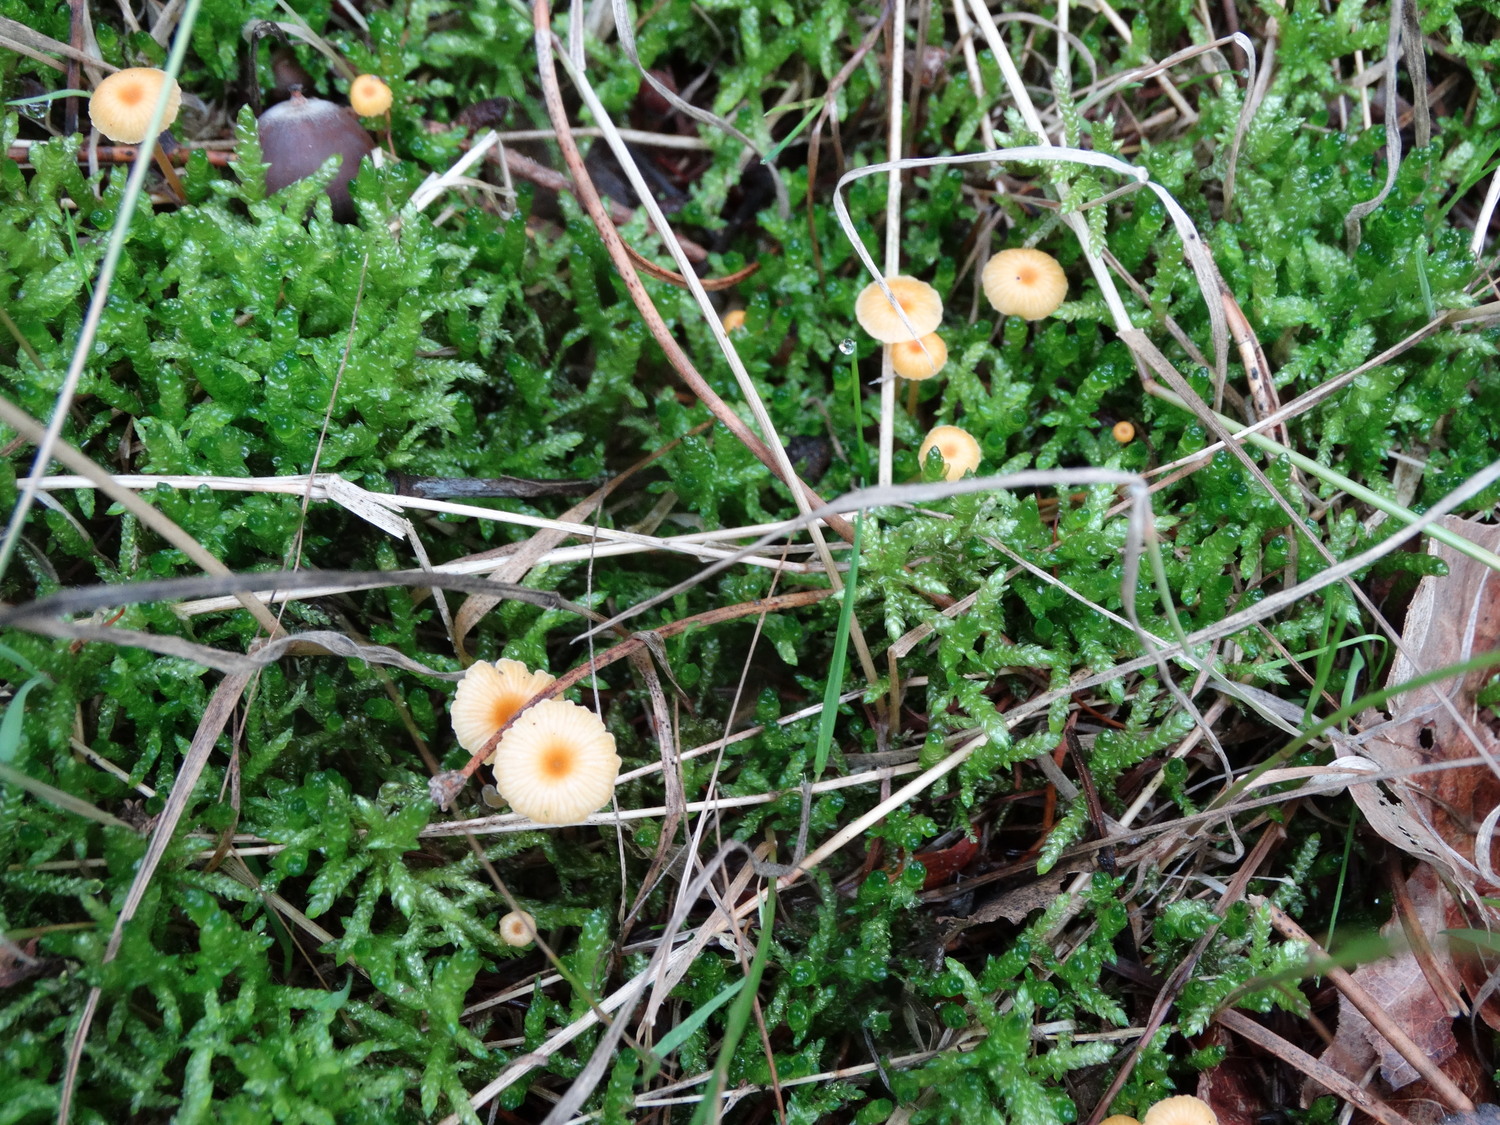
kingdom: Fungi
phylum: Basidiomycota
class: Agaricomycetes
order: Hymenochaetales
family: Rickenellaceae
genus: Rickenella
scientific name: Rickenella fibula
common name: orange mosnavlehat
